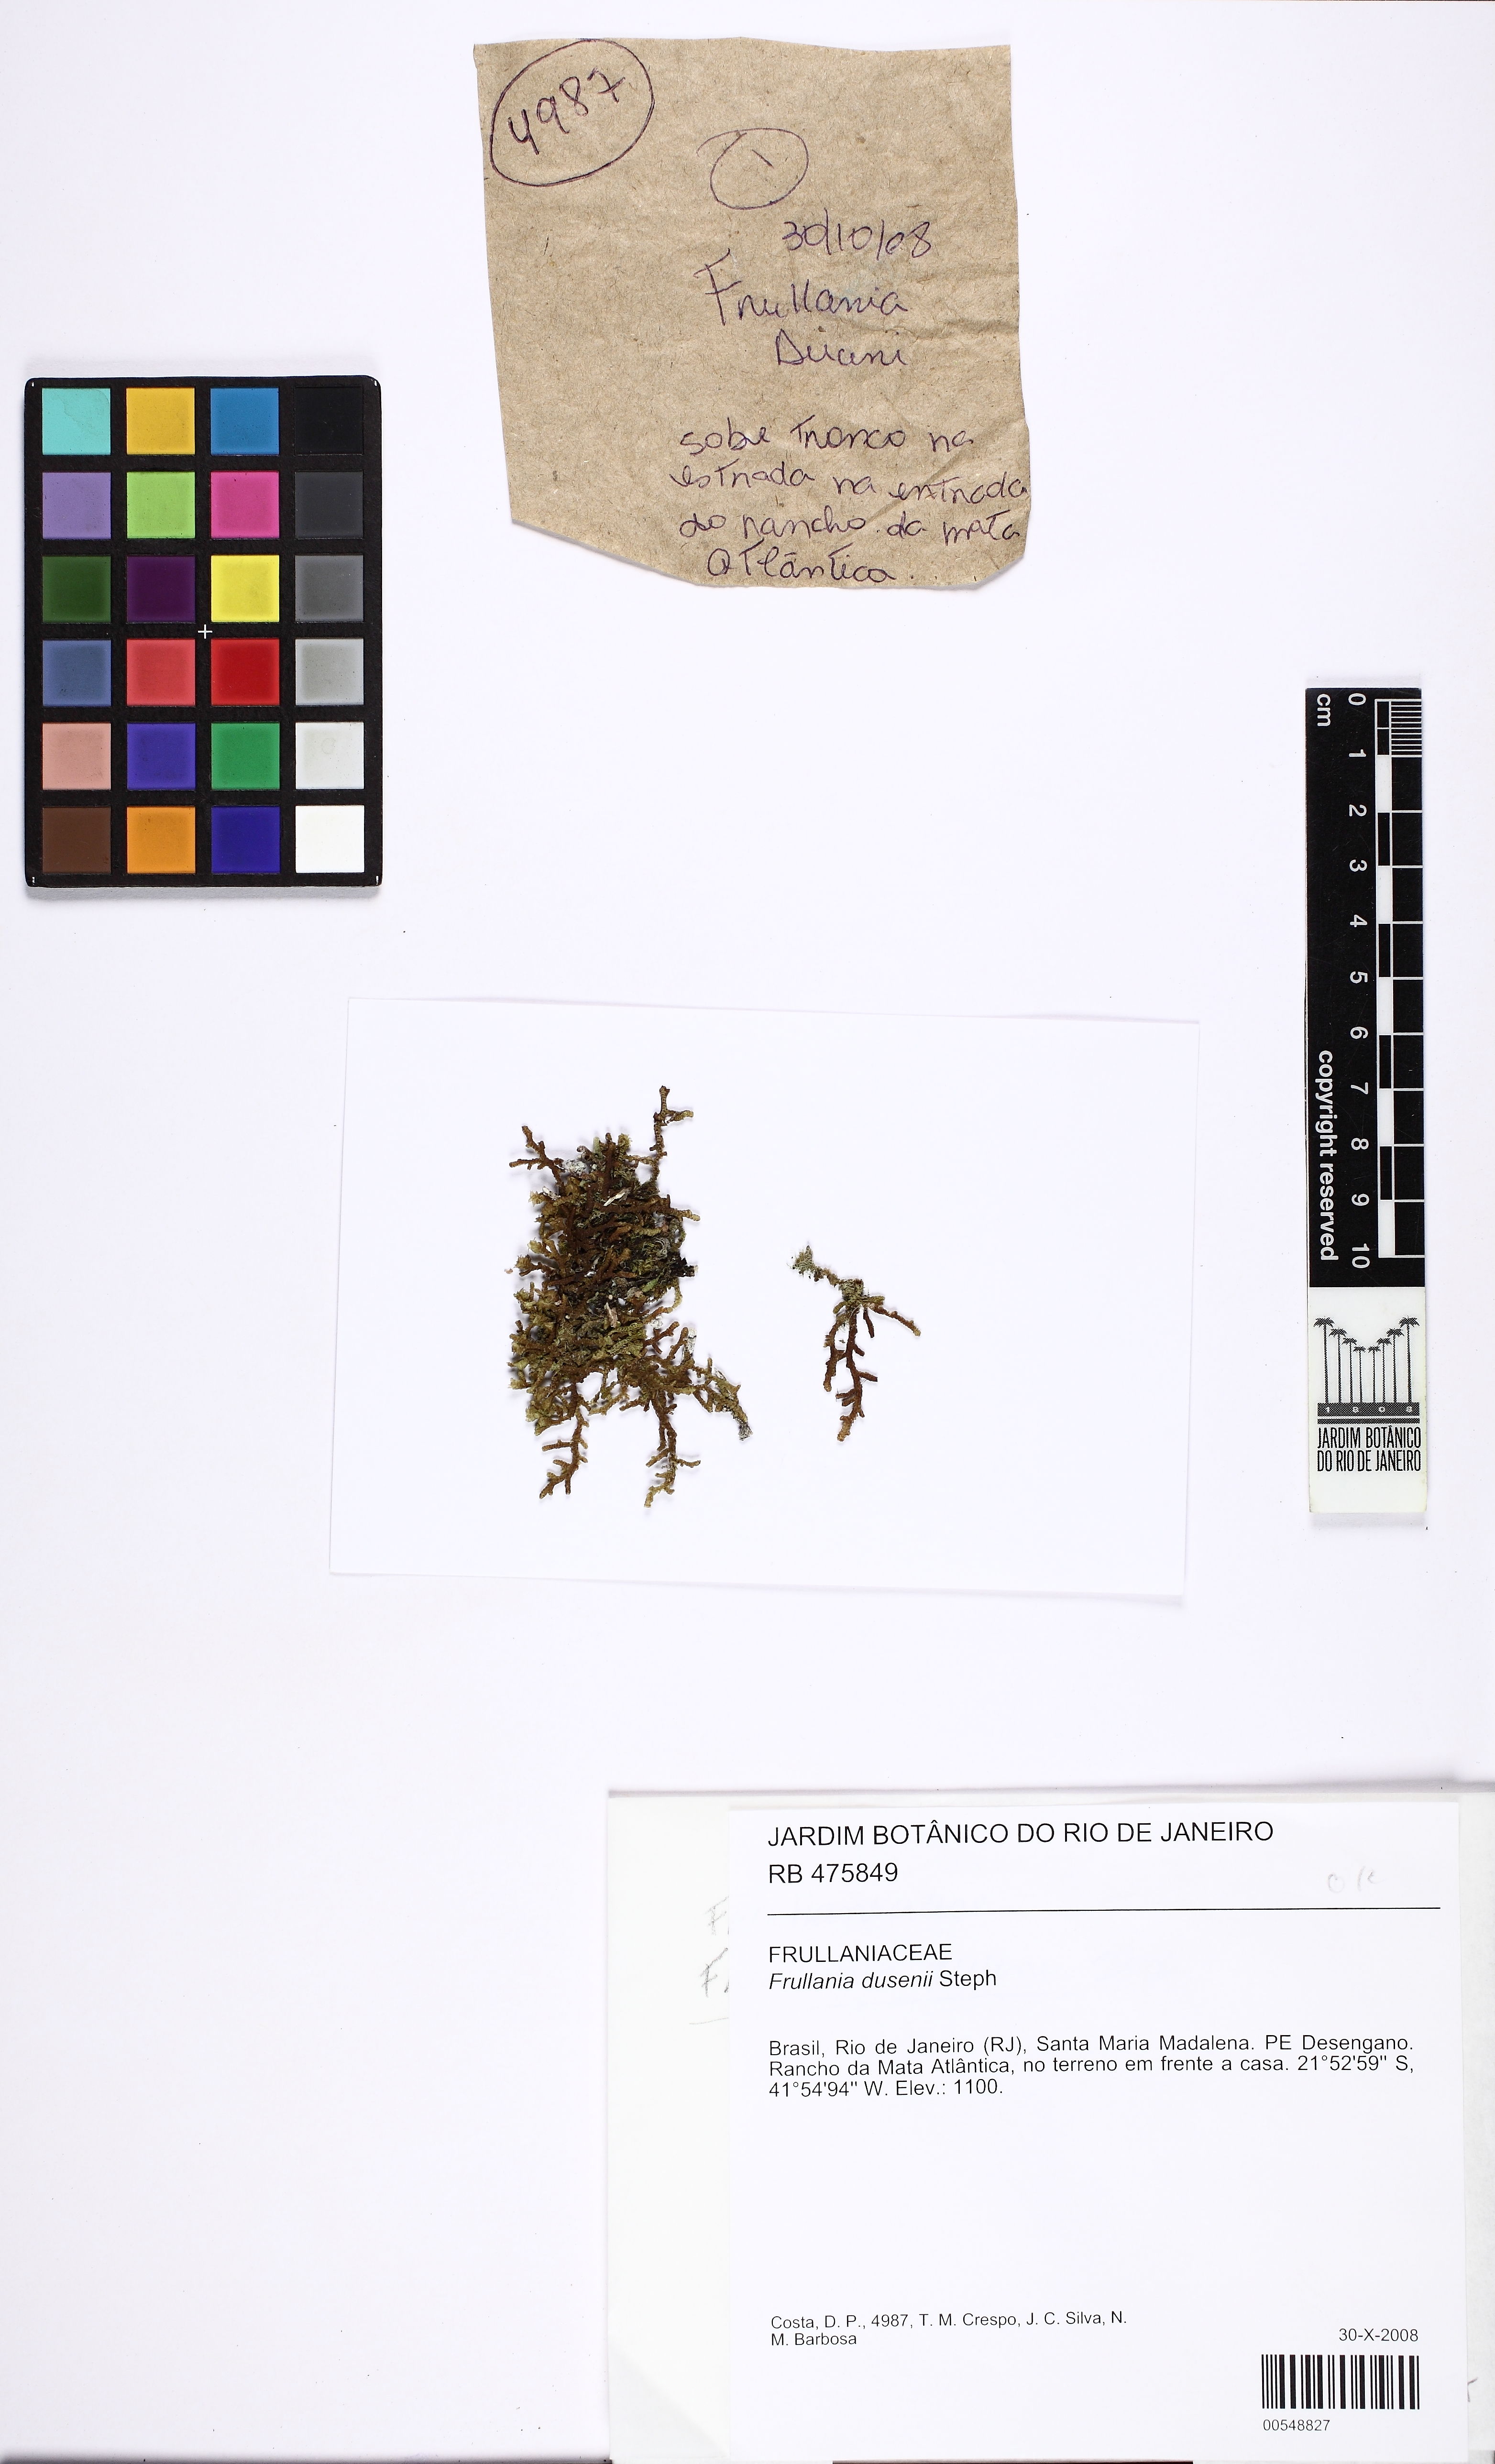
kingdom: Plantae
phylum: Marchantiophyta
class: Jungermanniopsida
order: Porellales
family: Frullaniaceae
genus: Frullania
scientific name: Frullania dusenii
